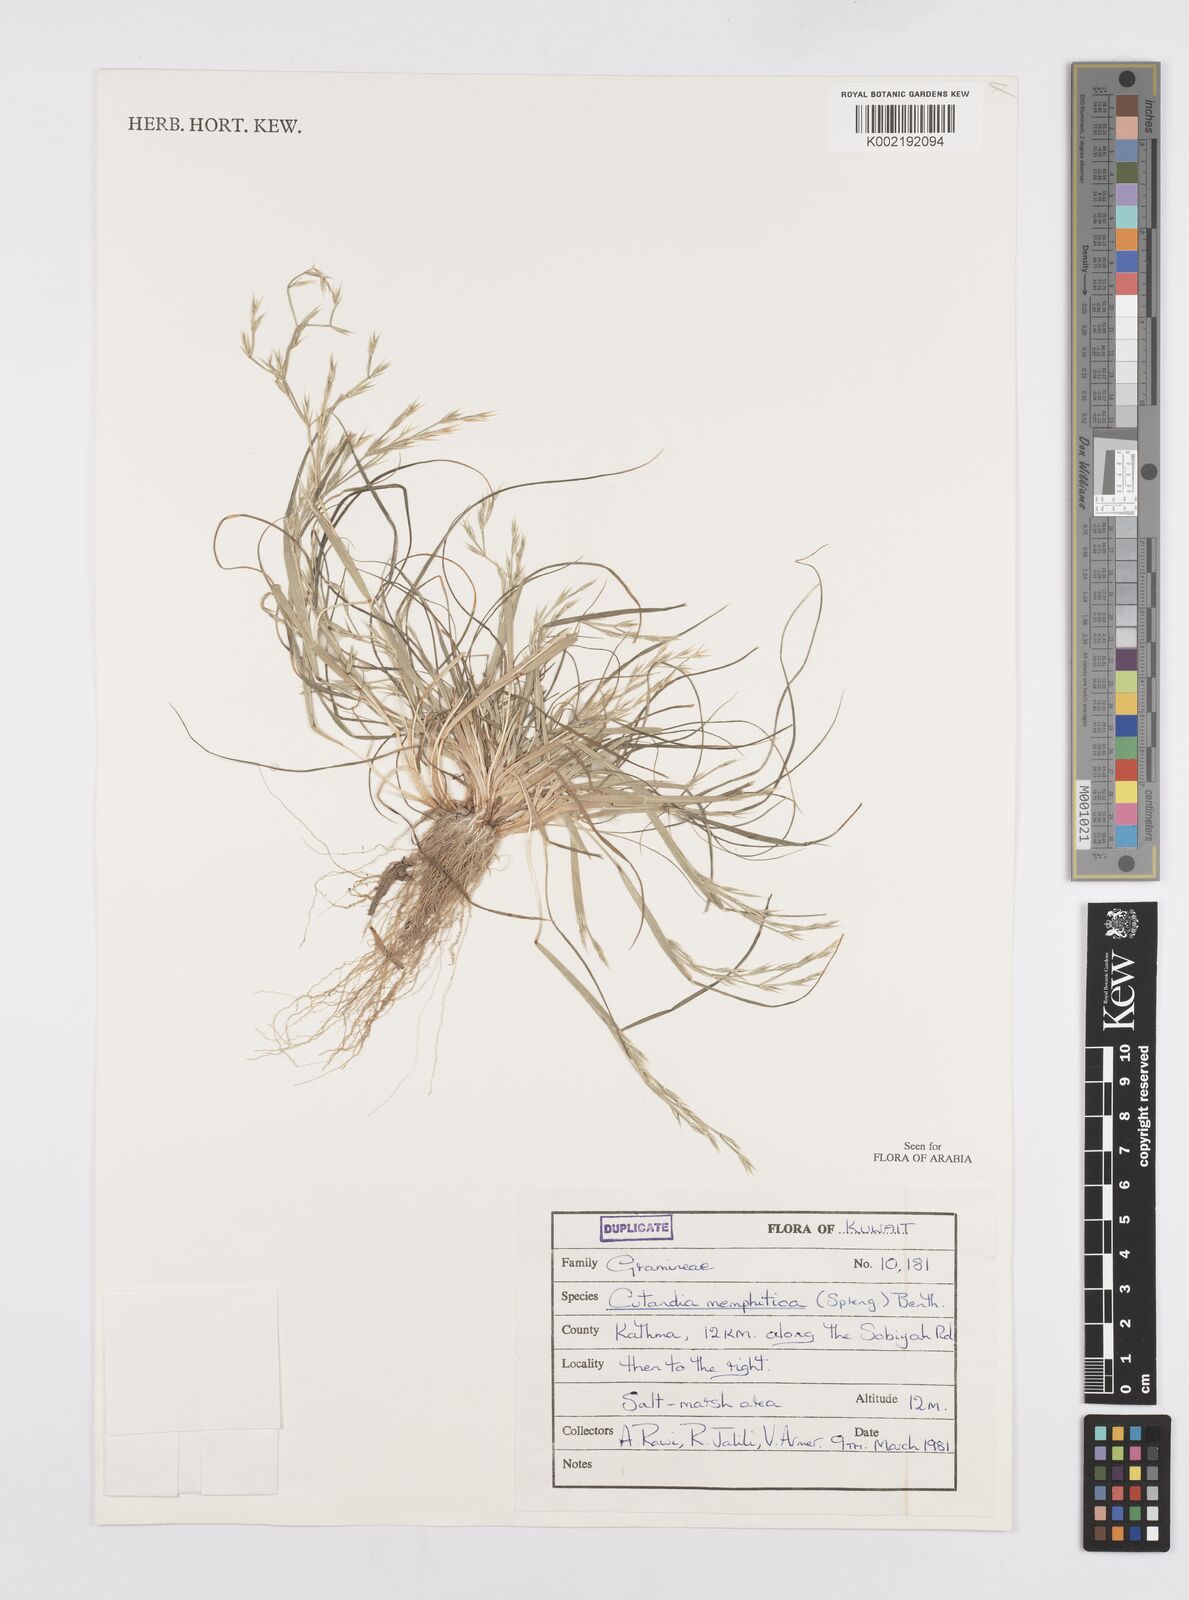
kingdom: Plantae
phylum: Tracheophyta
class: Liliopsida
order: Poales
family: Poaceae
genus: Cutandia
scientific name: Cutandia memphitica
